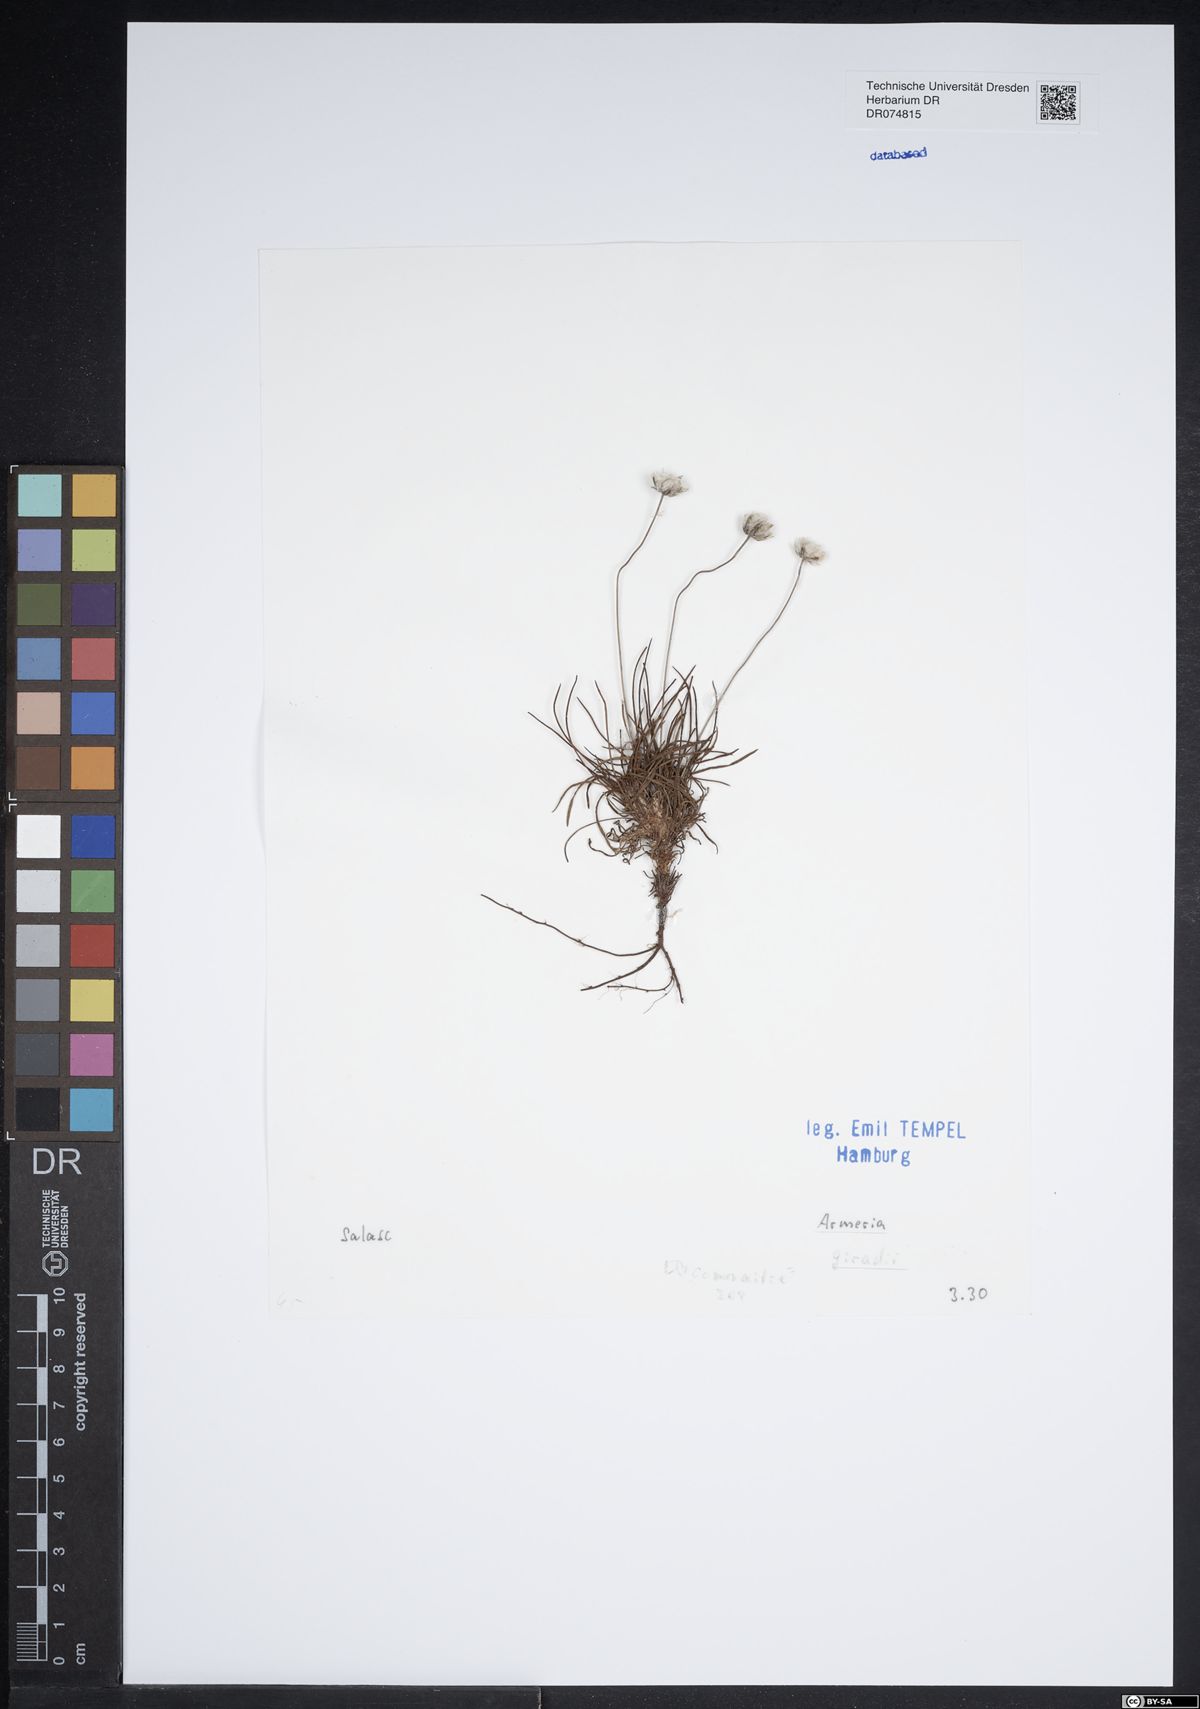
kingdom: Plantae
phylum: Tracheophyta
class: Magnoliopsida
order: Caryophyllales
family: Plumbaginaceae
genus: Armeria
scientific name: Armeria girardii
